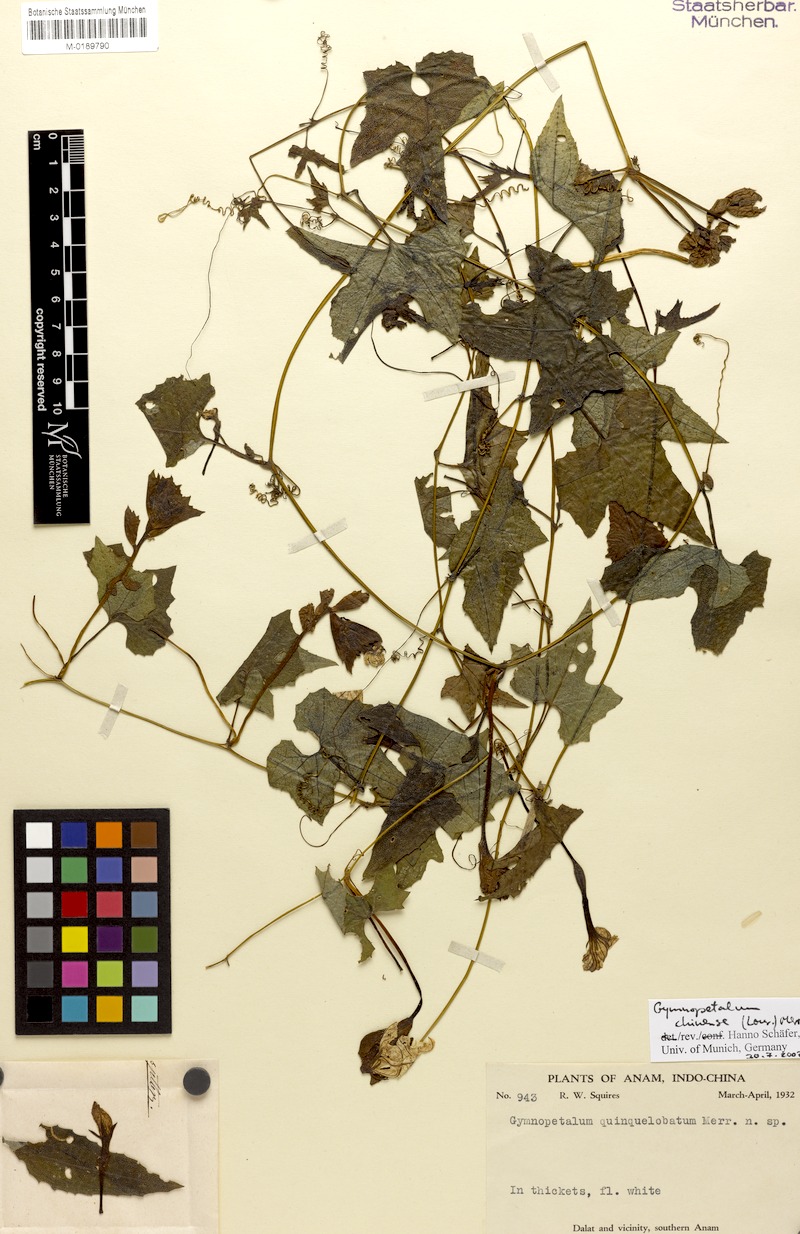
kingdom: Plantae
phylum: Tracheophyta
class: Magnoliopsida
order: Cucurbitales
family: Cucurbitaceae
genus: Trichosanthes
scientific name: Trichosanthes costata
